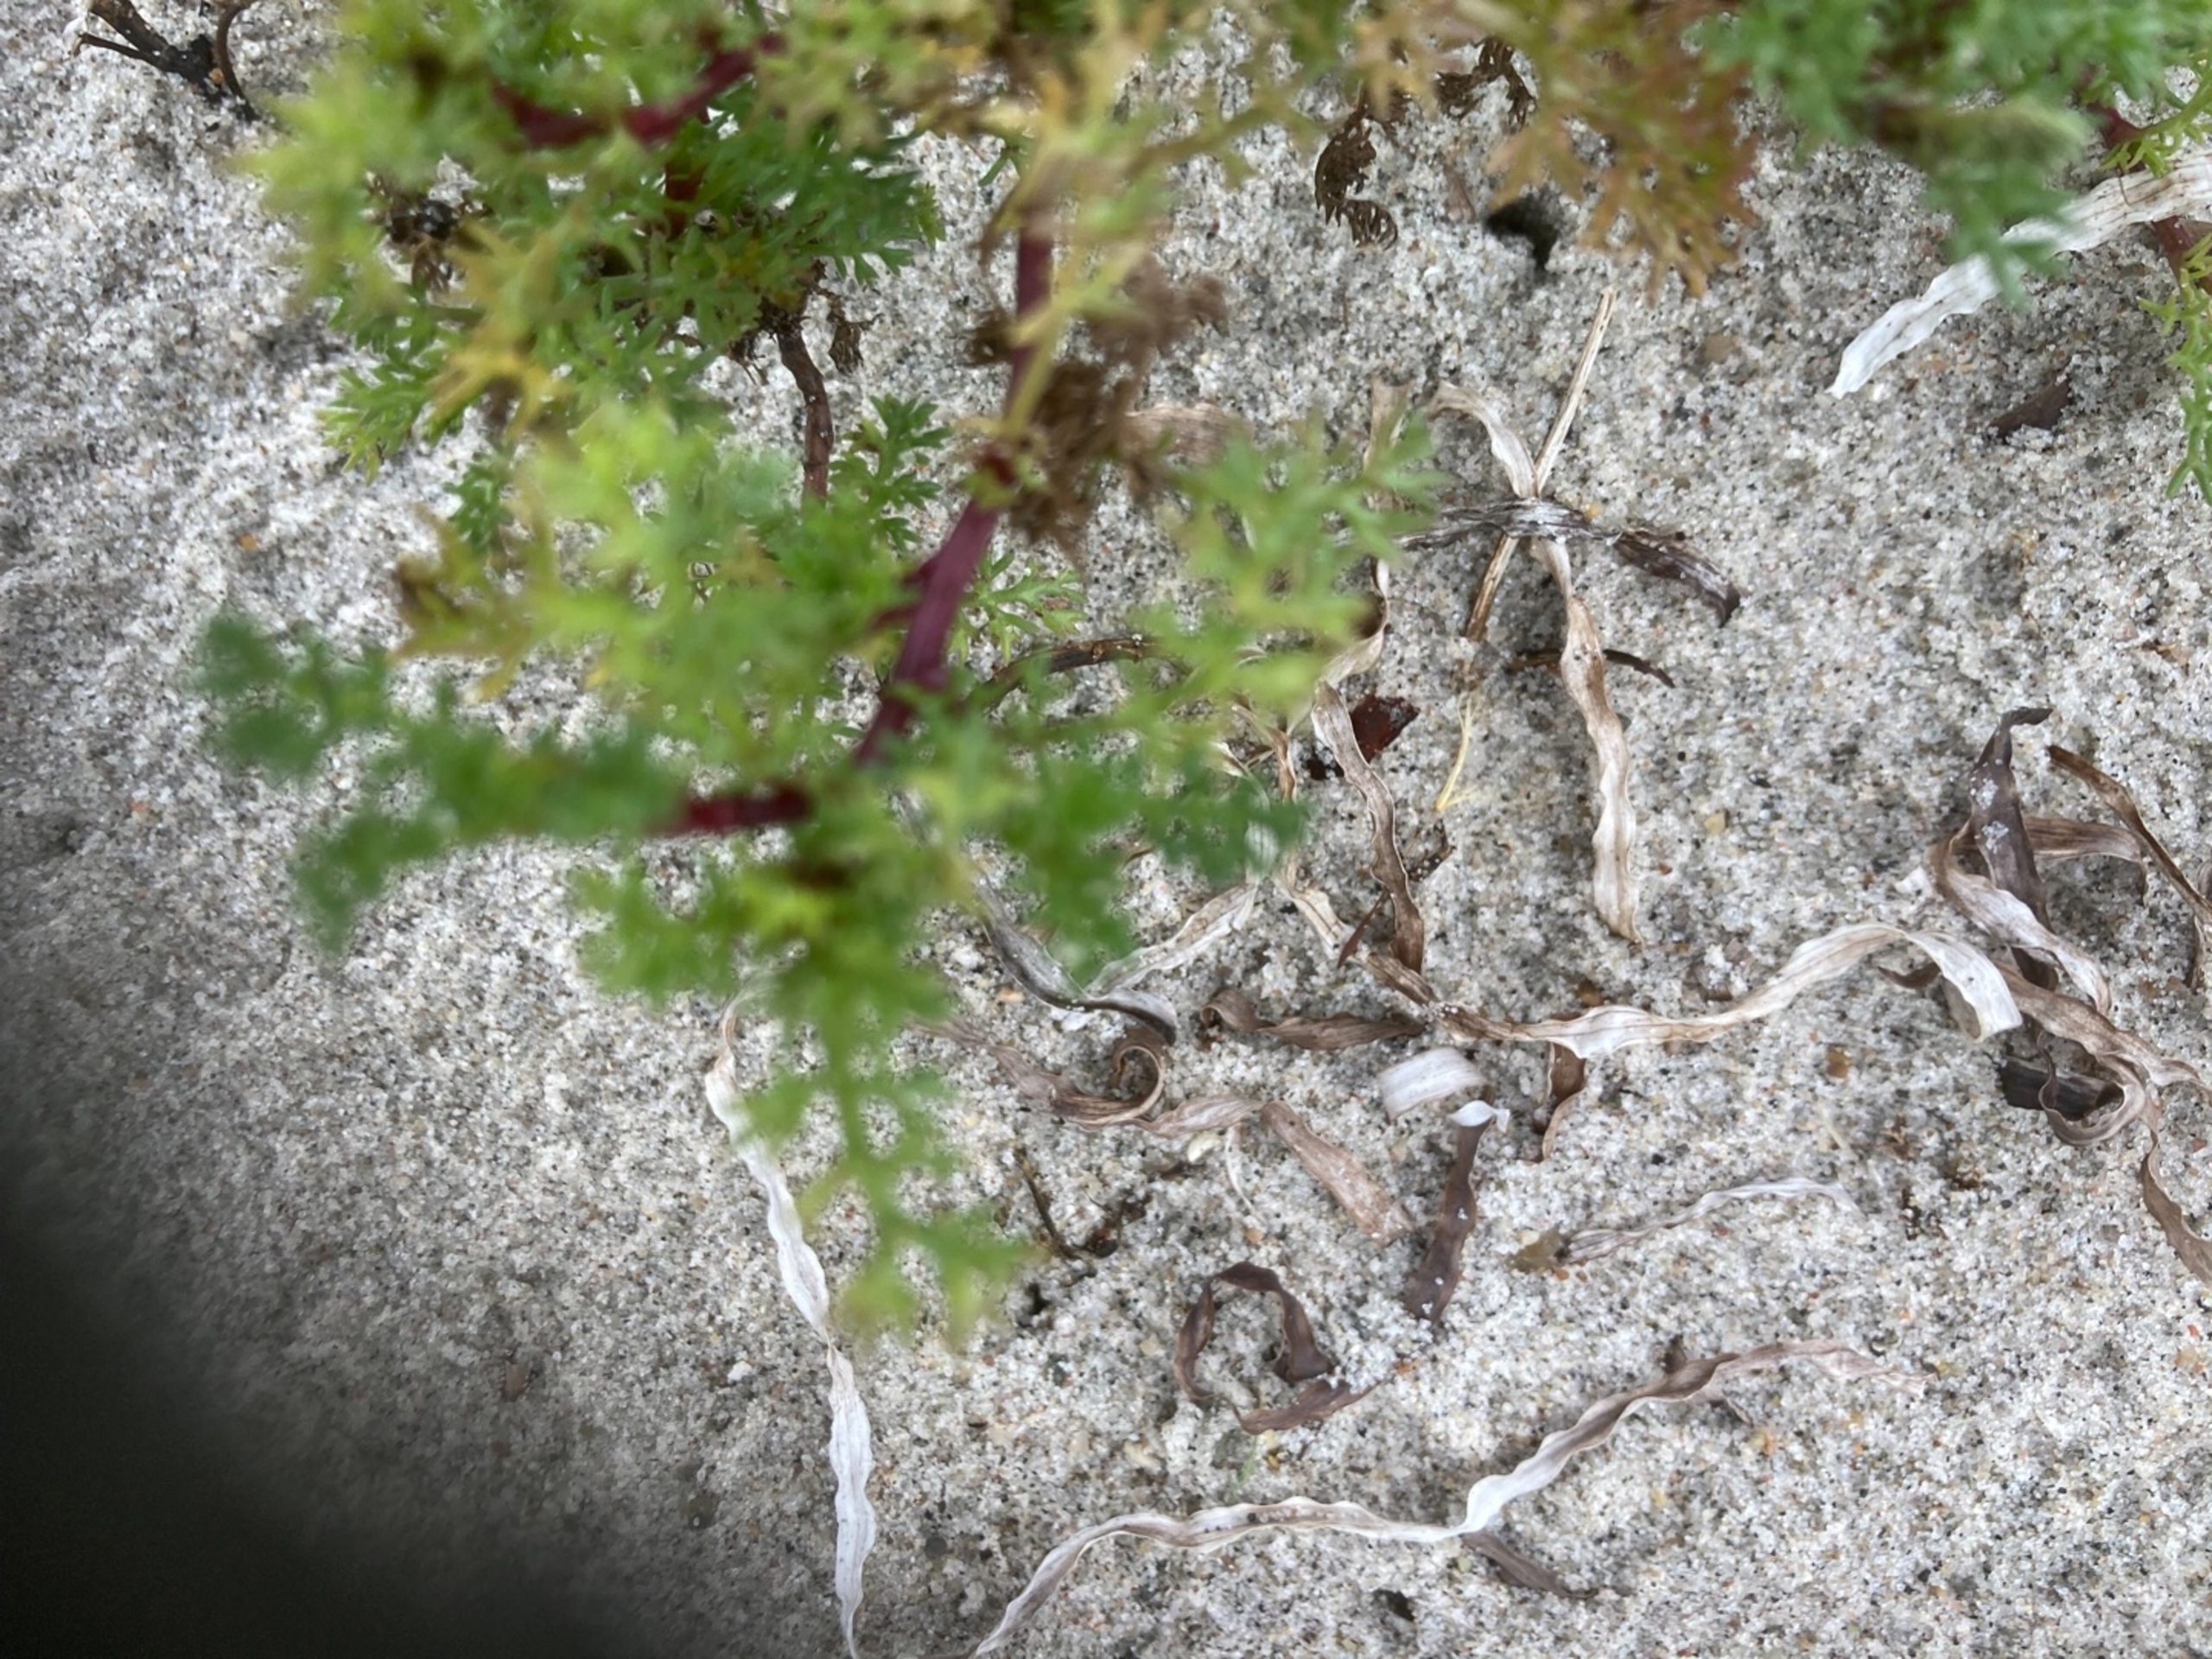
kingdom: Plantae
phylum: Tracheophyta
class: Magnoliopsida
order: Asterales
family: Asteraceae
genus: Tripleurospermum
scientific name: Tripleurospermum maritimum
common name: Almindelig strand-kamille
